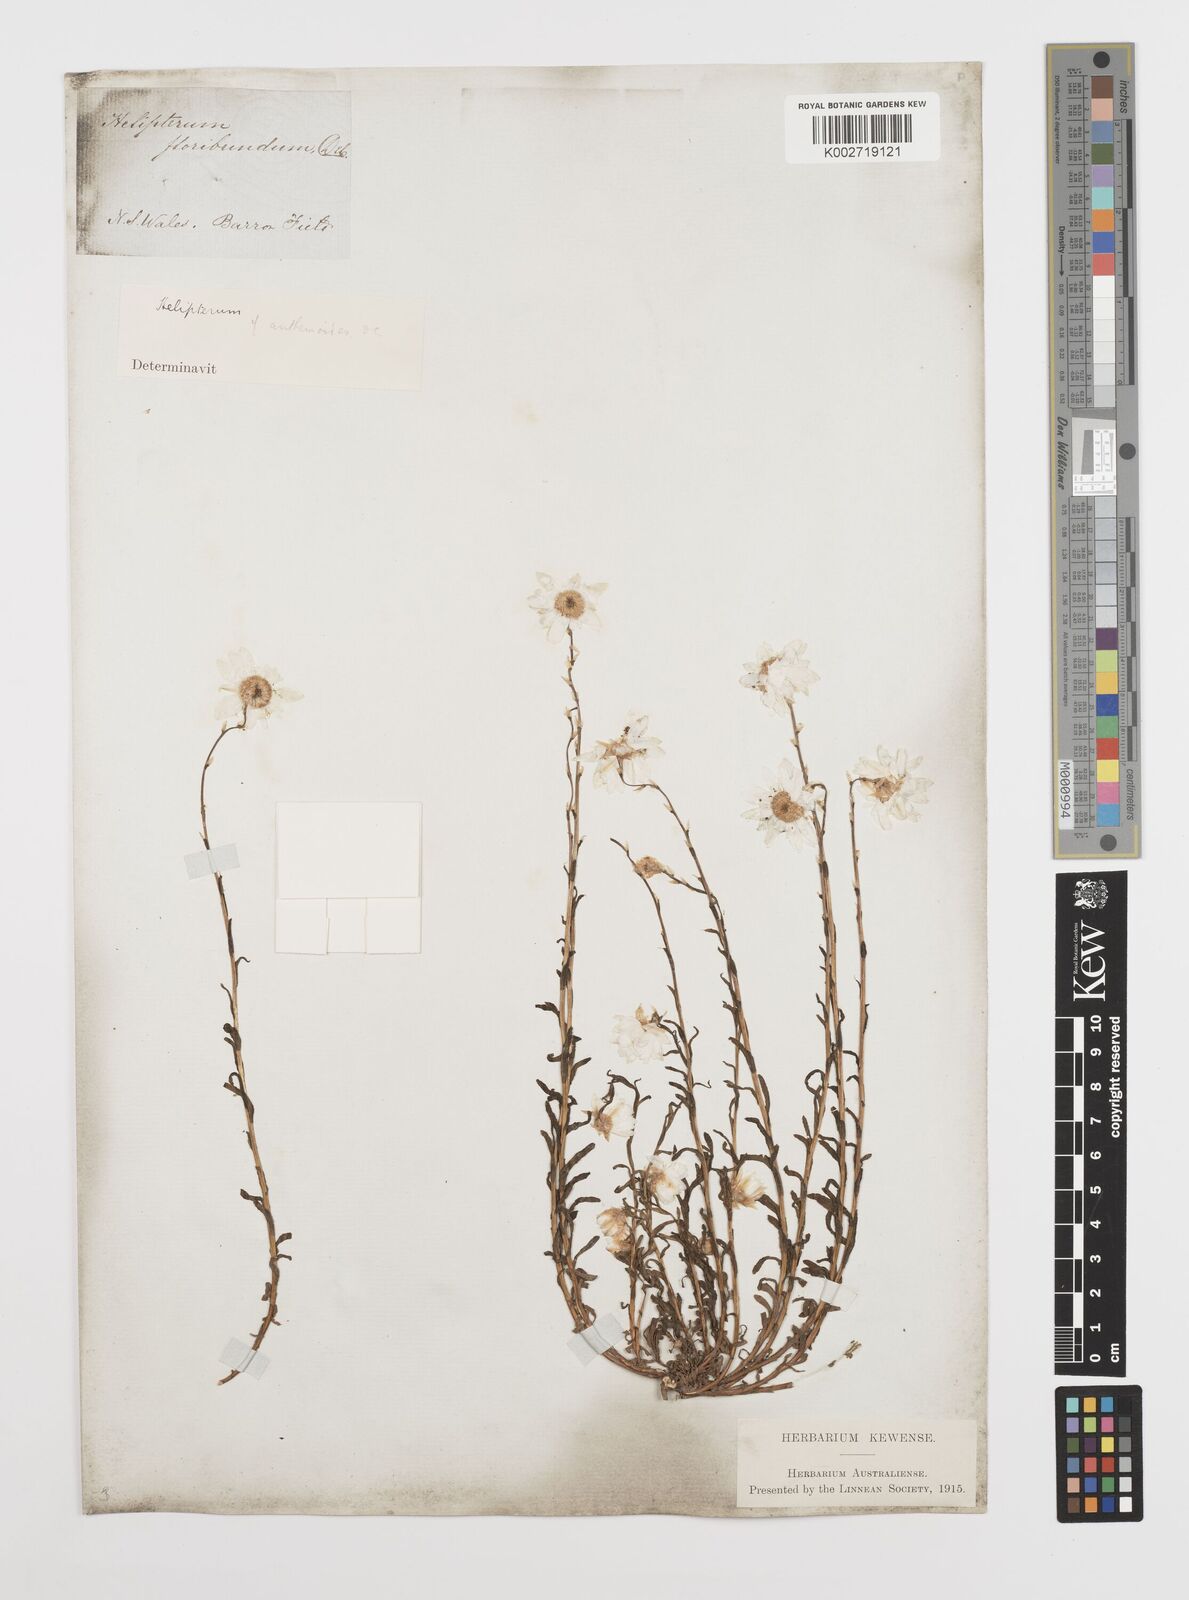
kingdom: Plantae
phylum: Tracheophyta
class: Magnoliopsida
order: Asterales
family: Asteraceae
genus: Rhodanthe
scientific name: Rhodanthe diffusa
